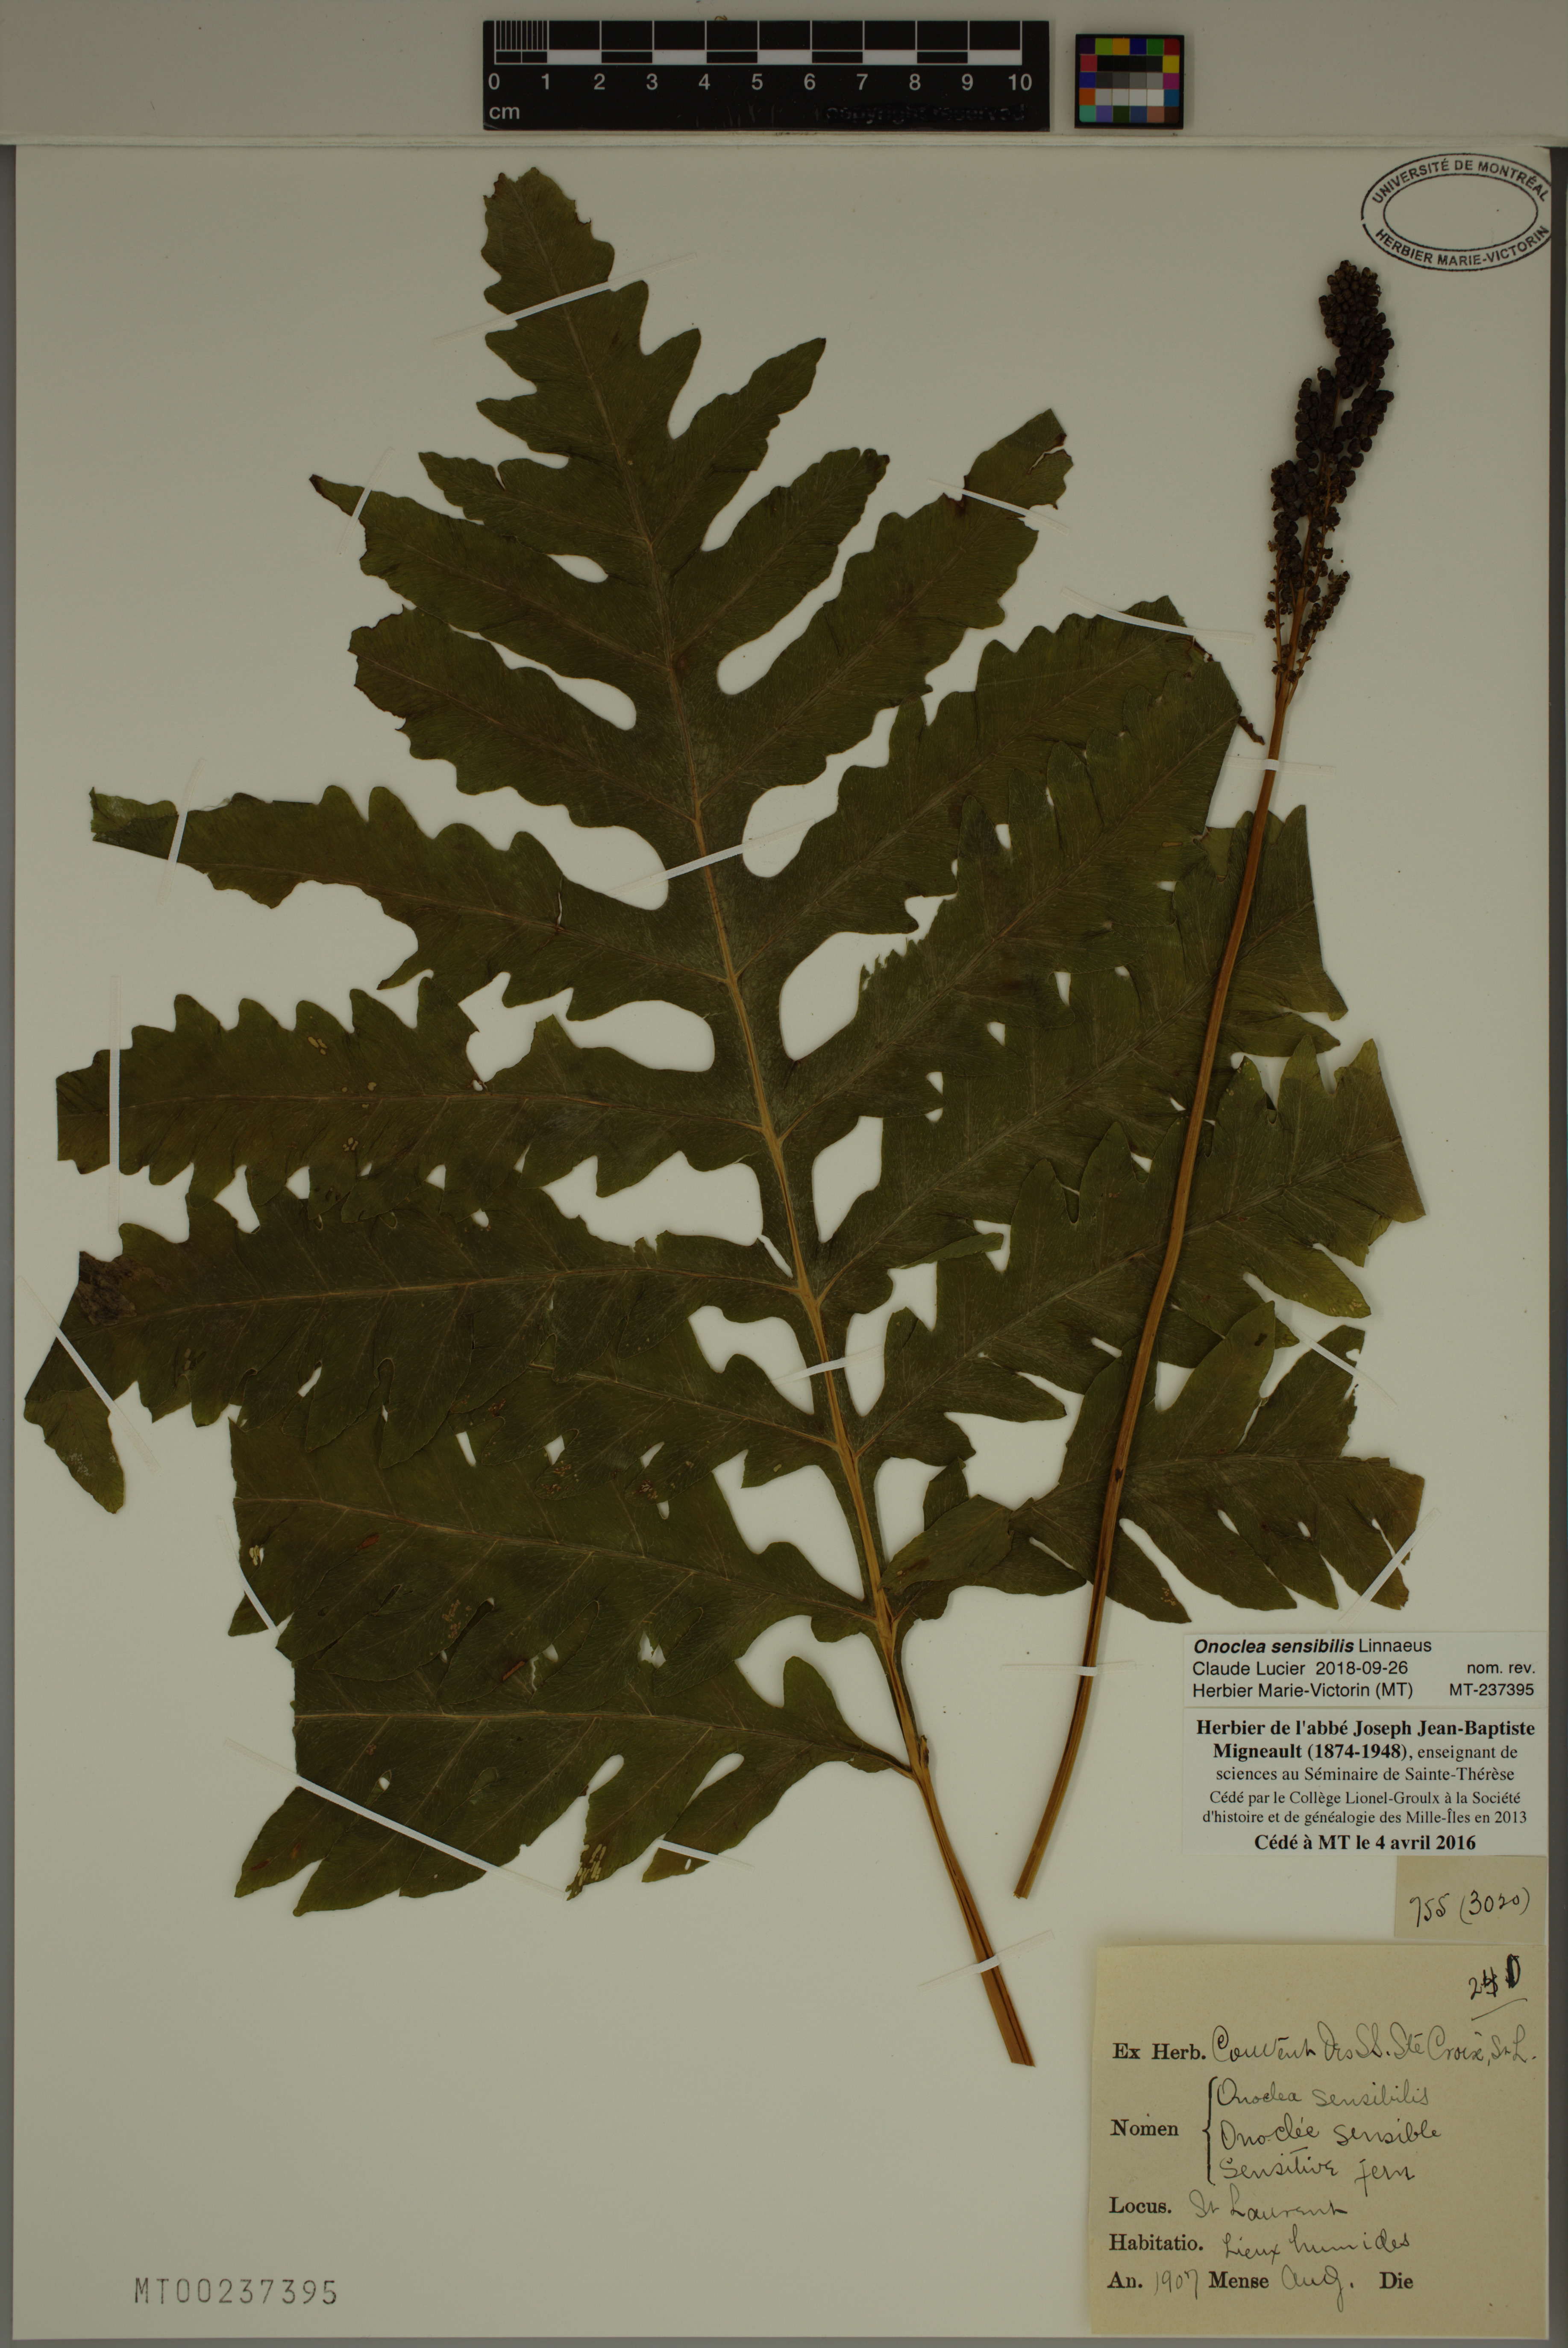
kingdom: Plantae
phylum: Tracheophyta
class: Polypodiopsida
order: Polypodiales
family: Onocleaceae
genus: Onoclea
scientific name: Onoclea sensibilis
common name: Sensitive fern
